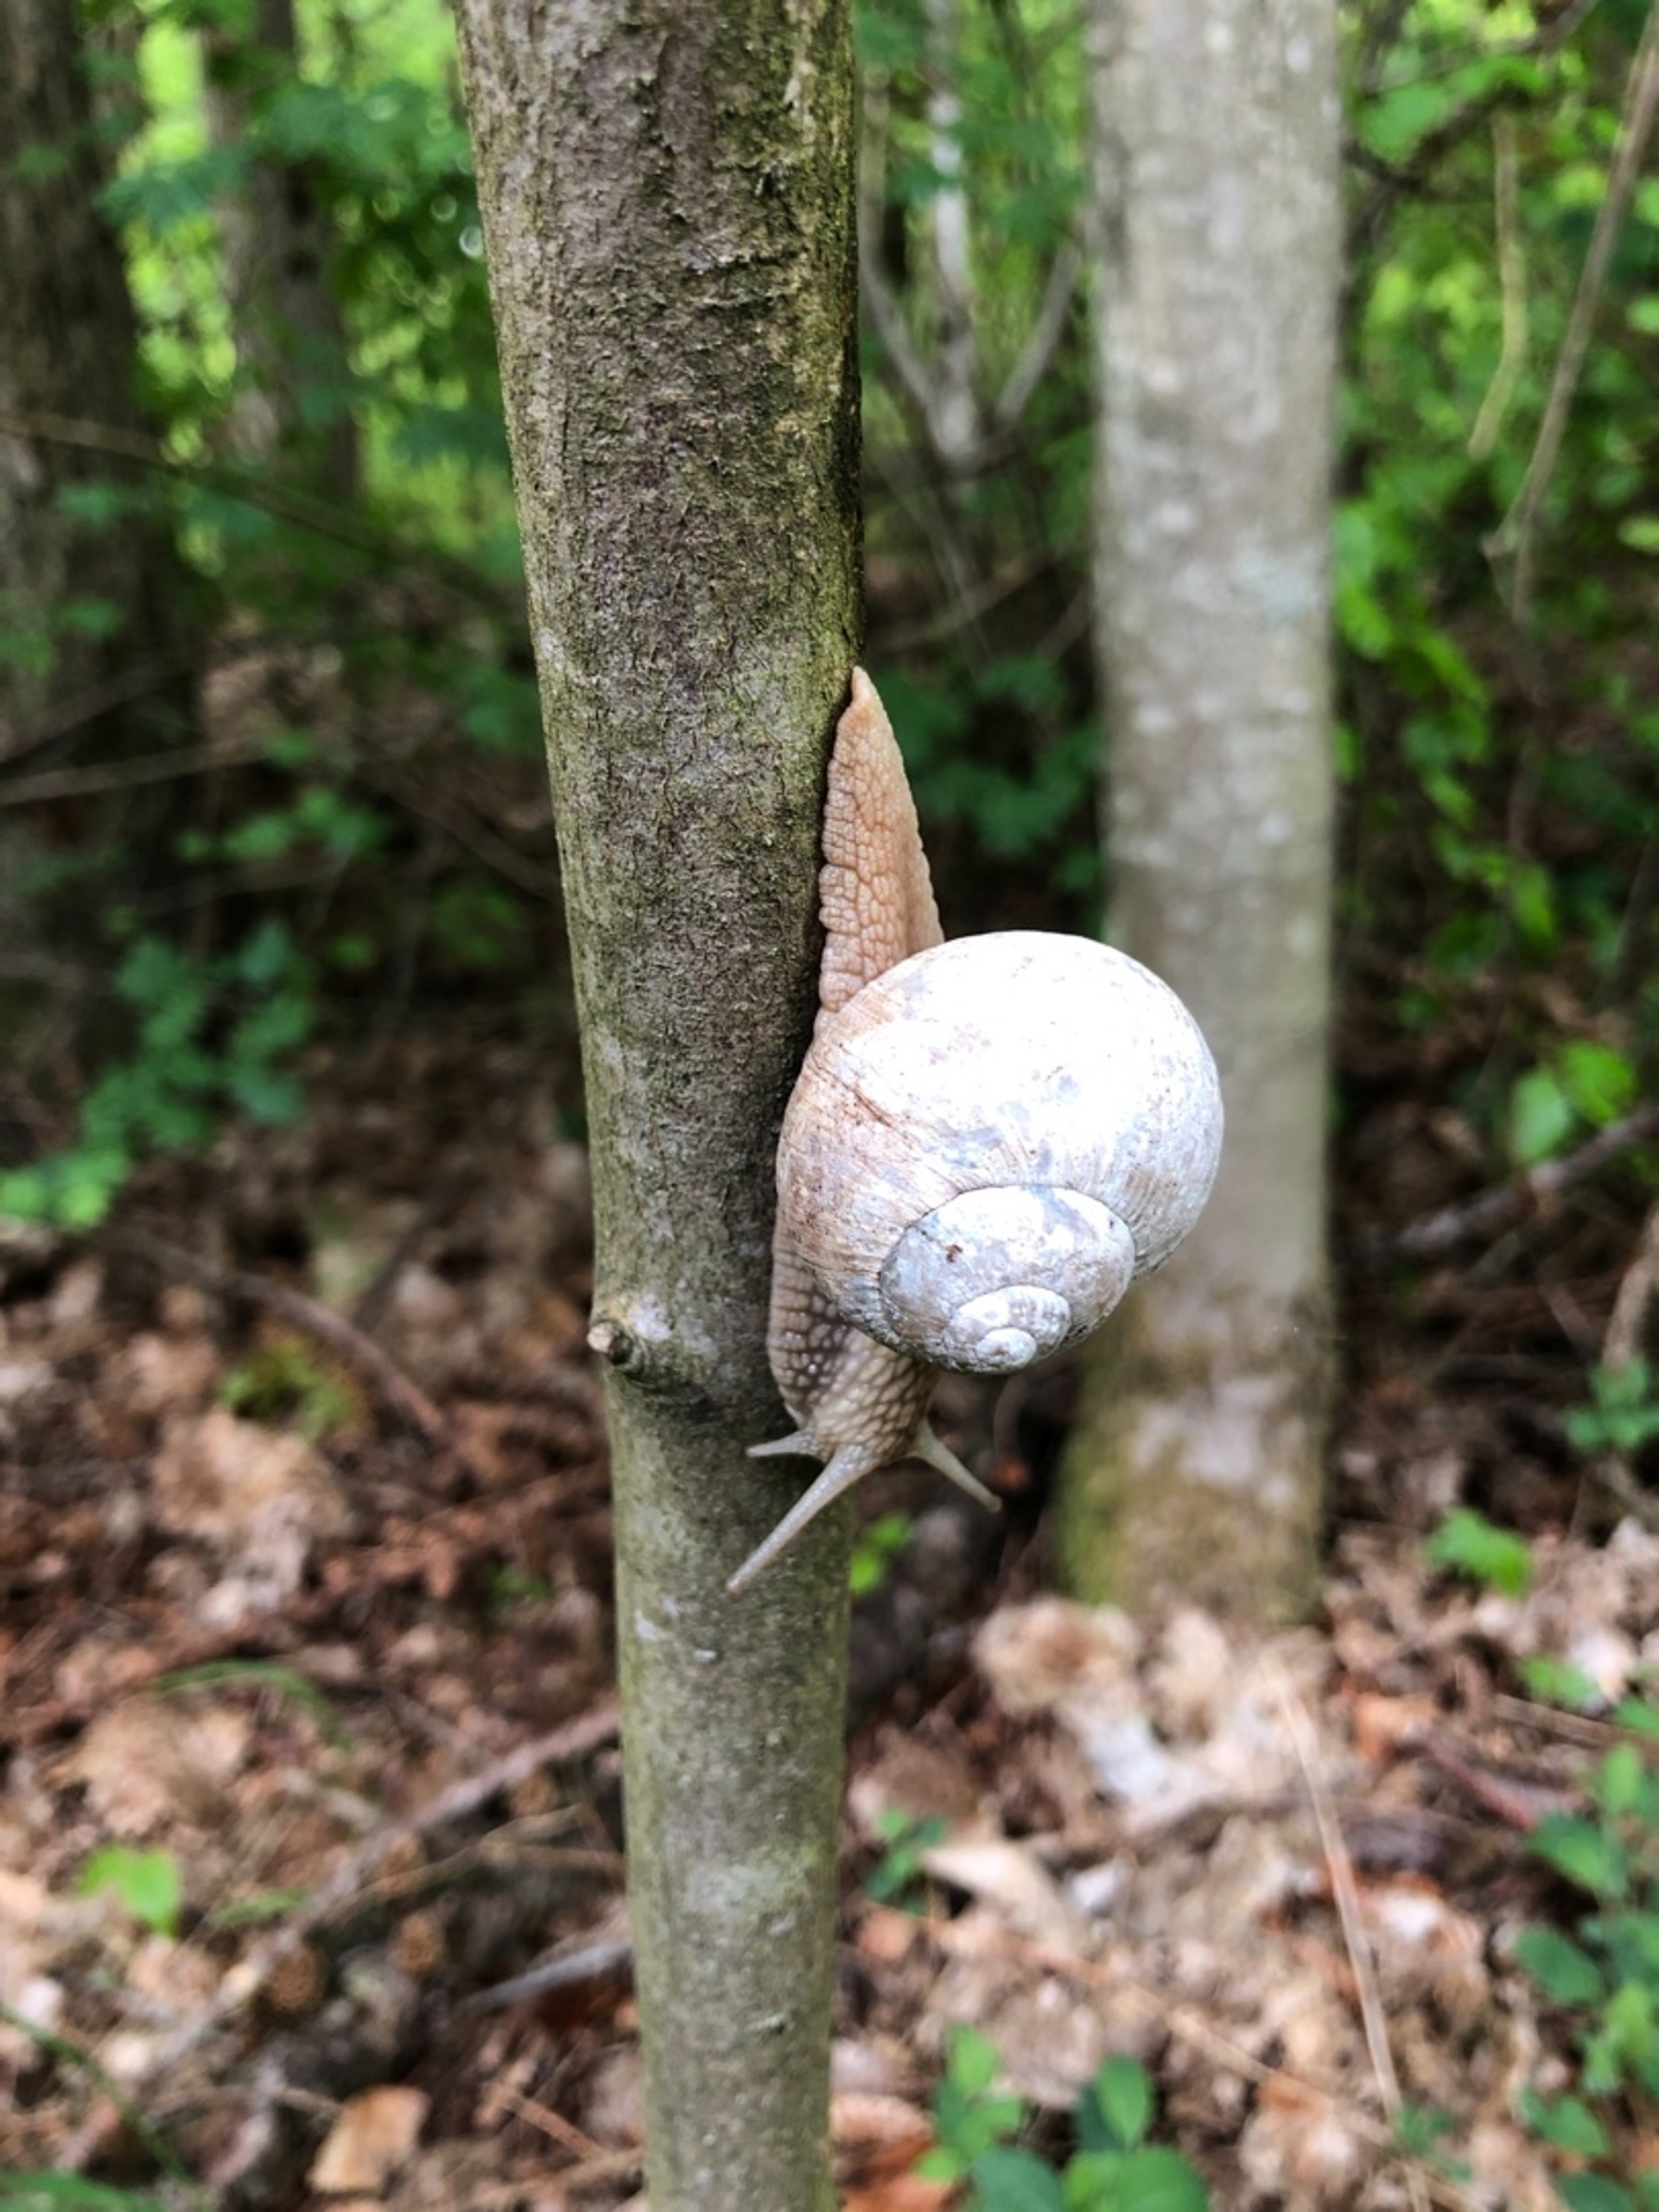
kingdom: Animalia
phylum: Mollusca
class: Gastropoda
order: Stylommatophora
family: Helicidae
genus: Helix
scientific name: Helix pomatia
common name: Vinbjergsnegl
